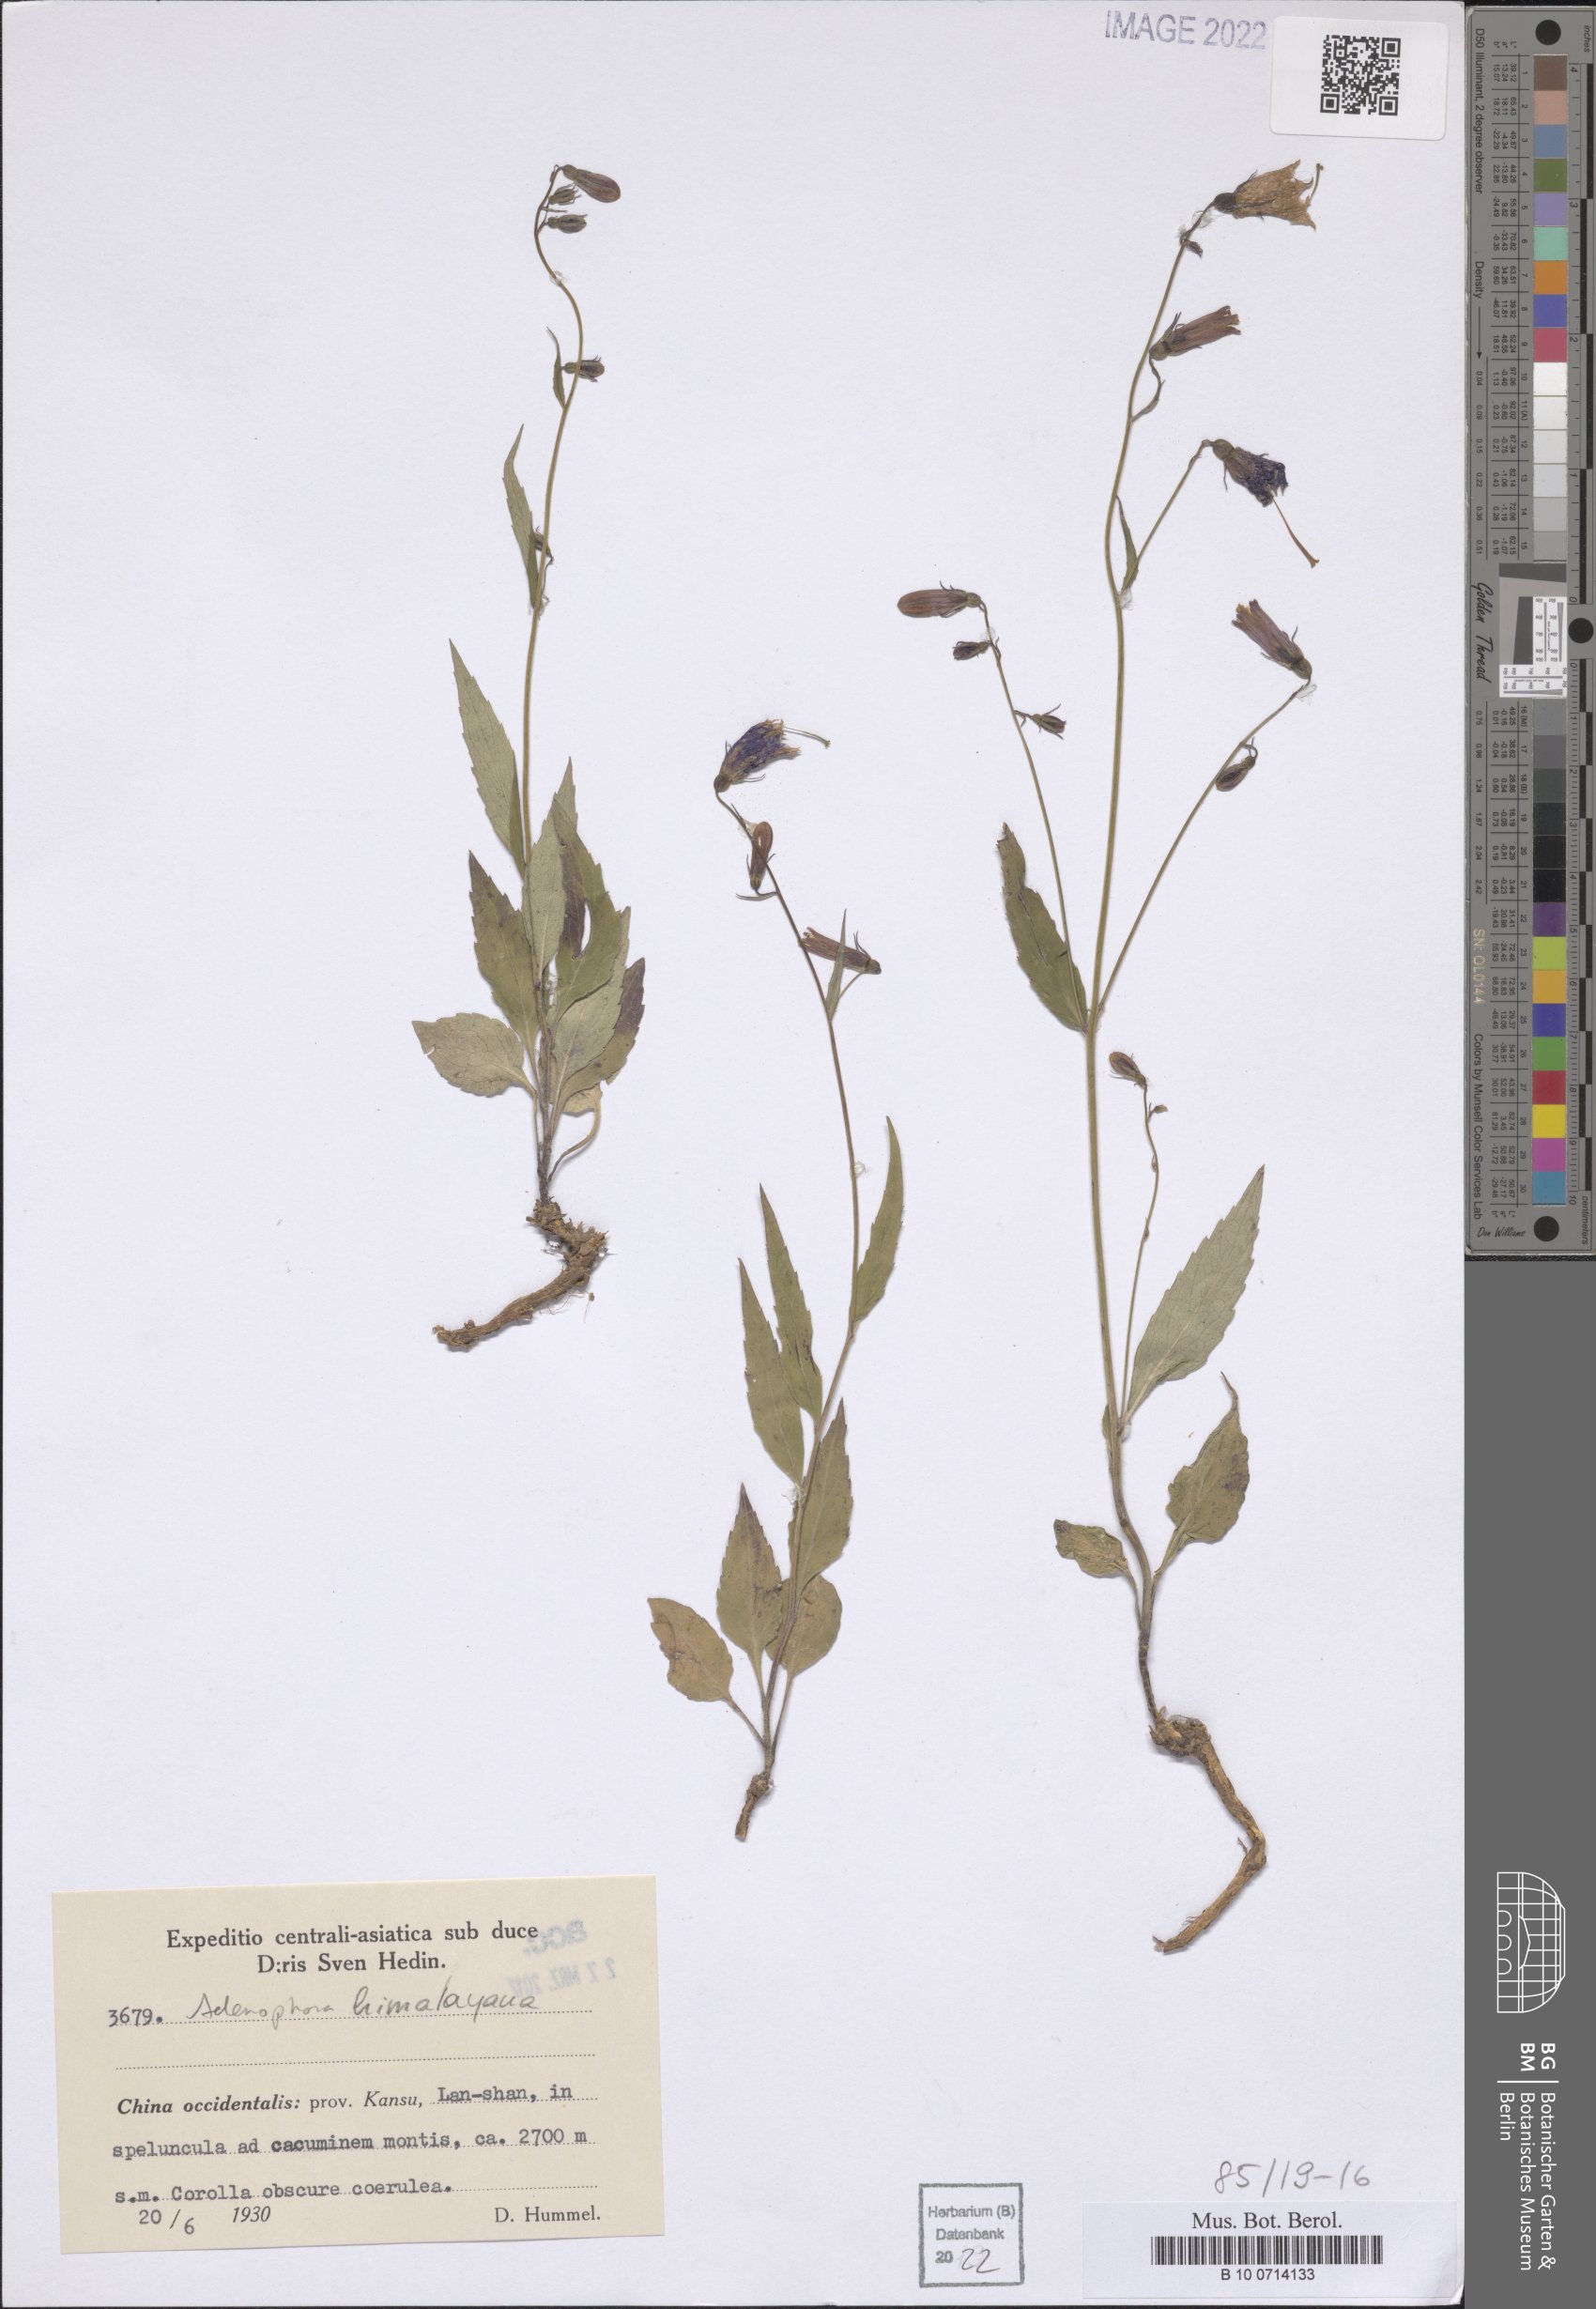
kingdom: Plantae
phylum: Tracheophyta
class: Magnoliopsida
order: Asterales
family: Campanulaceae
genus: Adenophora
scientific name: Adenophora himalayana
